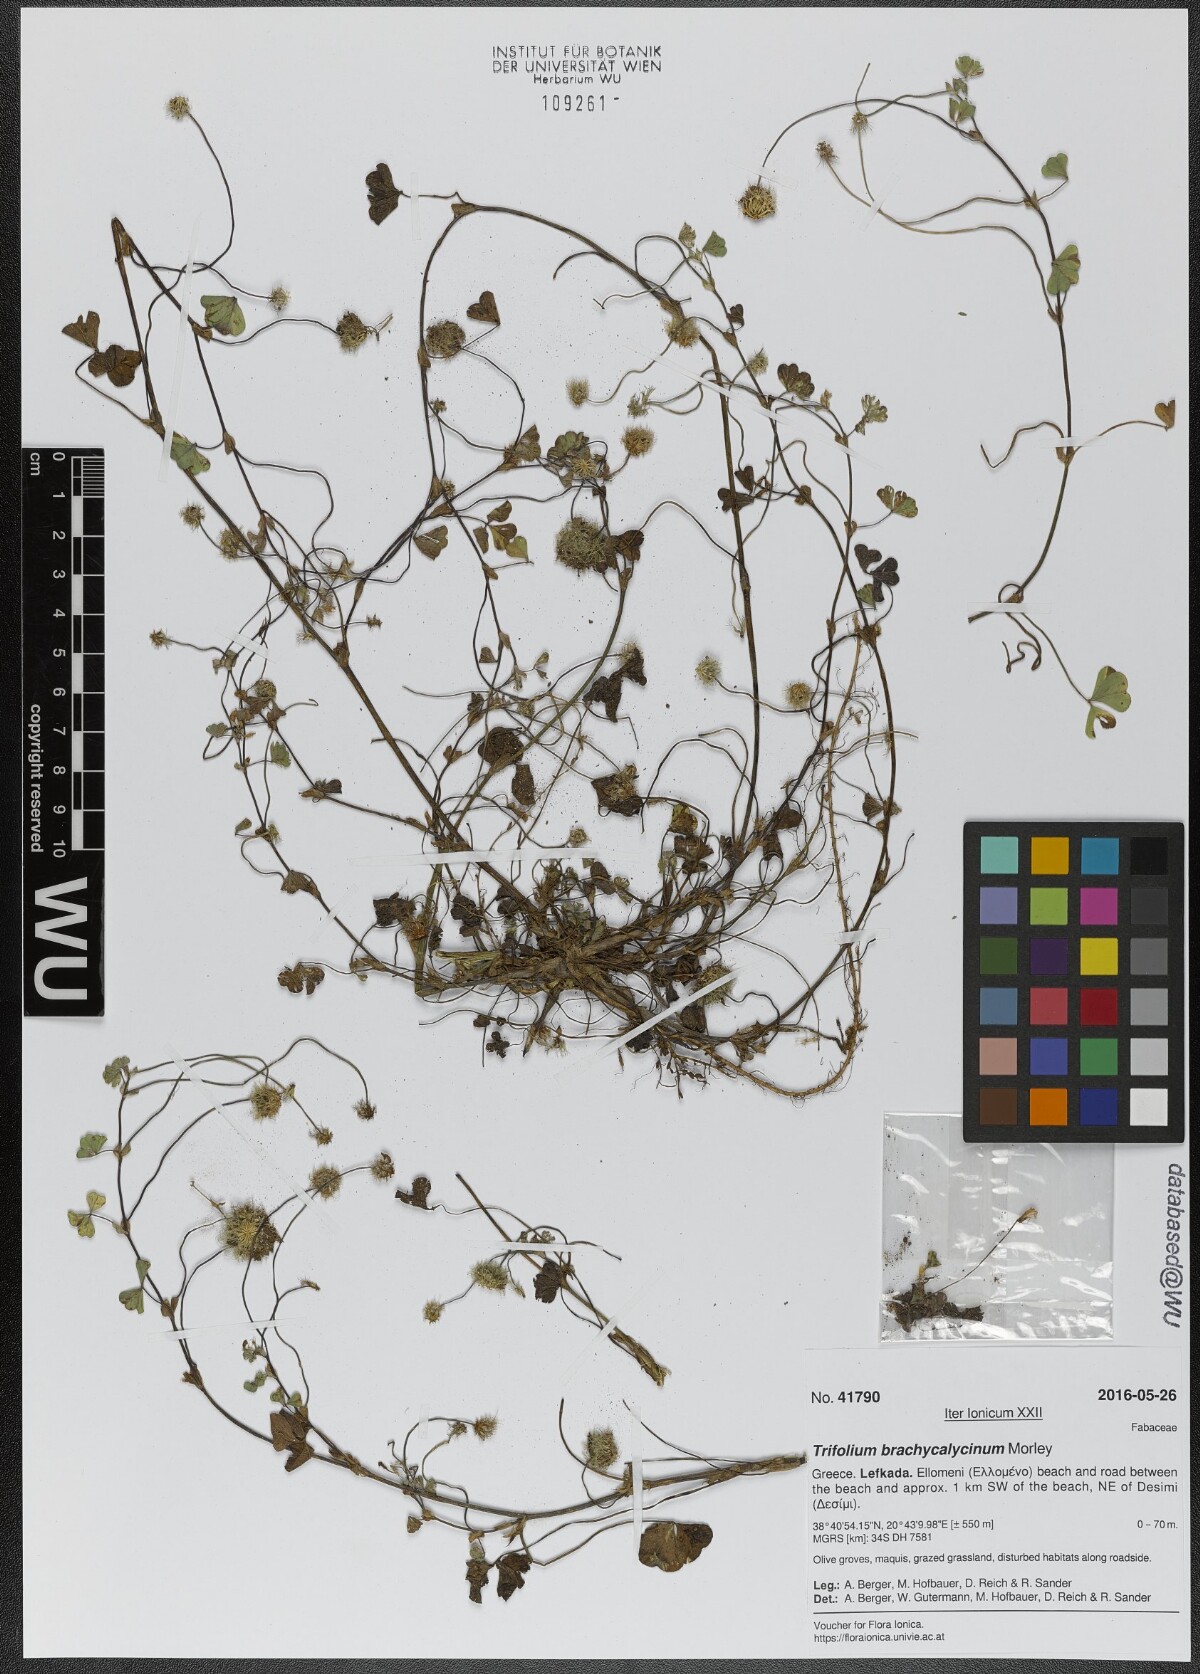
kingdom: Plantae
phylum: Tracheophyta
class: Magnoliopsida
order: Fabales
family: Fabaceae
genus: Trifolium
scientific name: Trifolium subterraneum
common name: Subterranean clover
